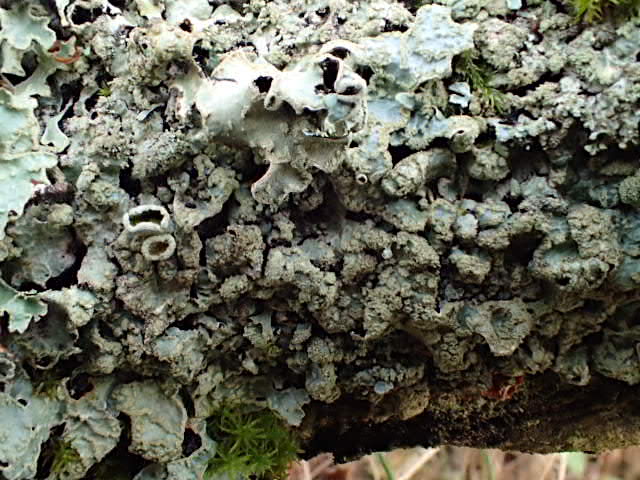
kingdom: Fungi
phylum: Ascomycota
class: Lecanoromycetes
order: Lecanorales
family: Parmeliaceae
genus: Parmelia
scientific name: Parmelia sulcata
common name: rynket skållav
